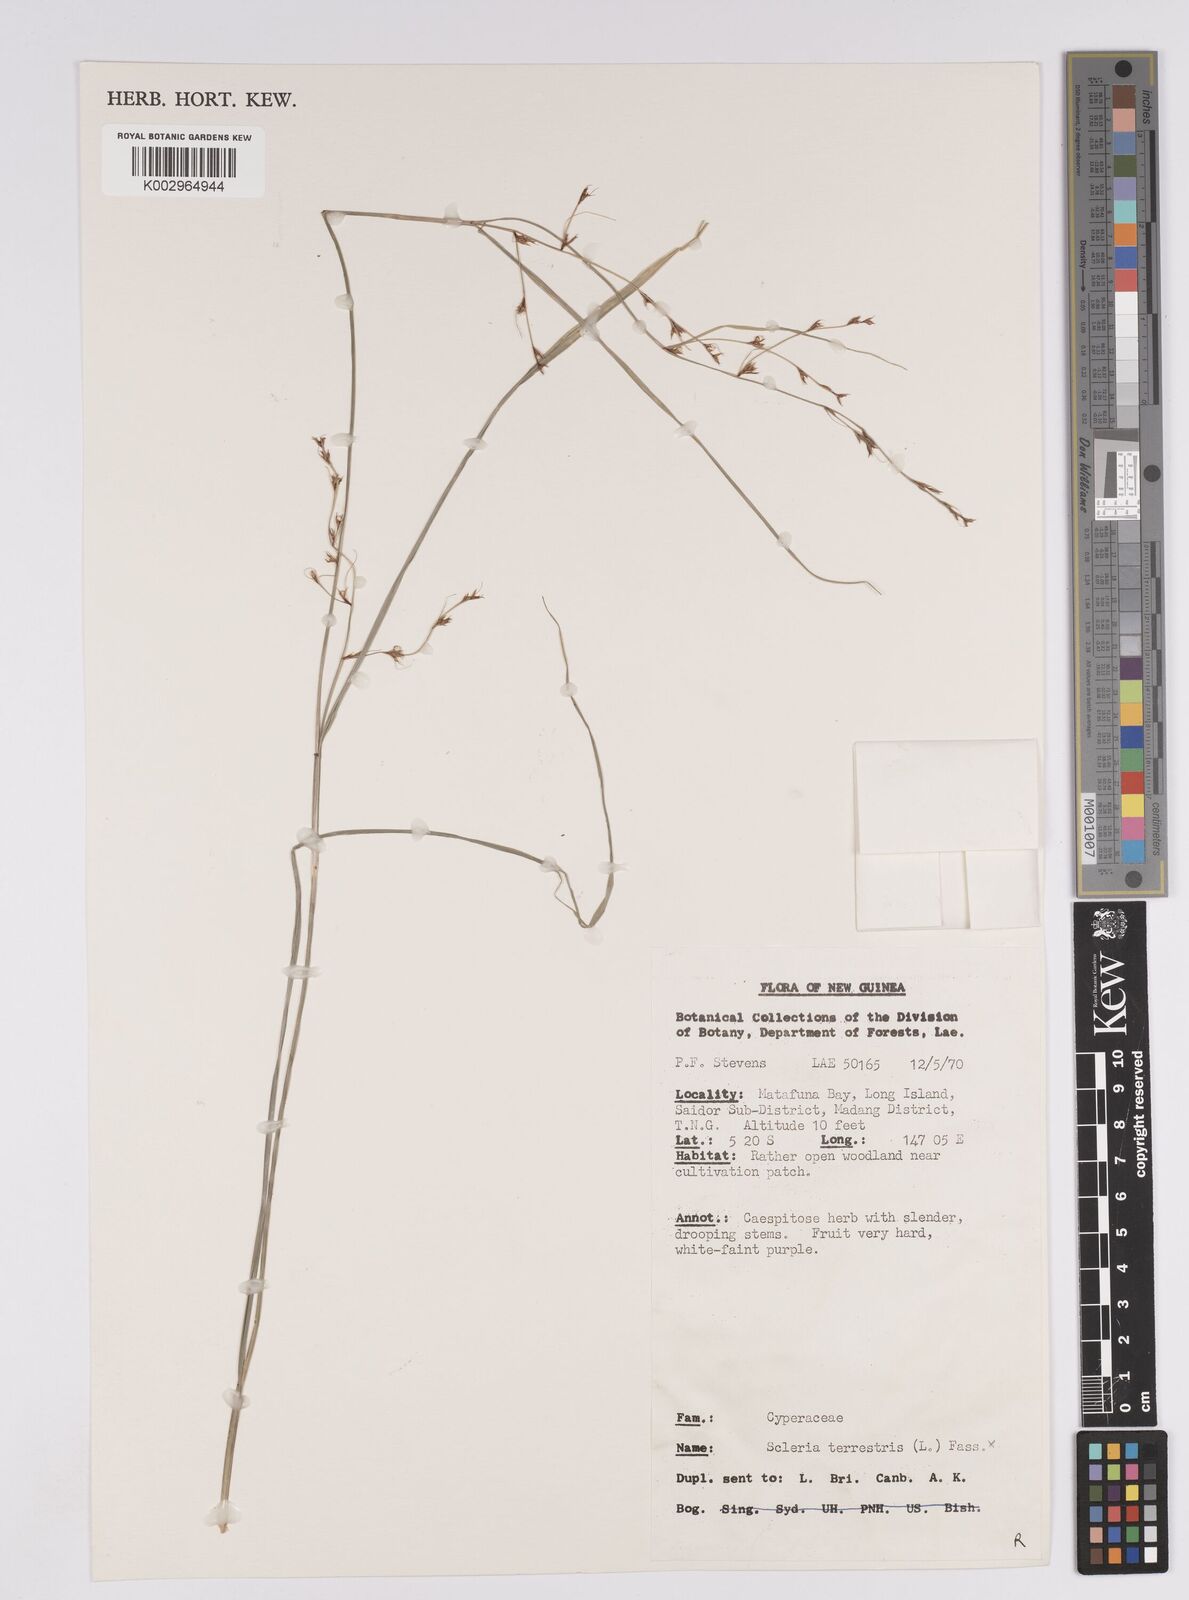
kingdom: Plantae
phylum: Tracheophyta
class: Liliopsida
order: Poales
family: Cyperaceae
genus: Scleria
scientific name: Scleria lithosperma
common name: Florida keys nut-rush
